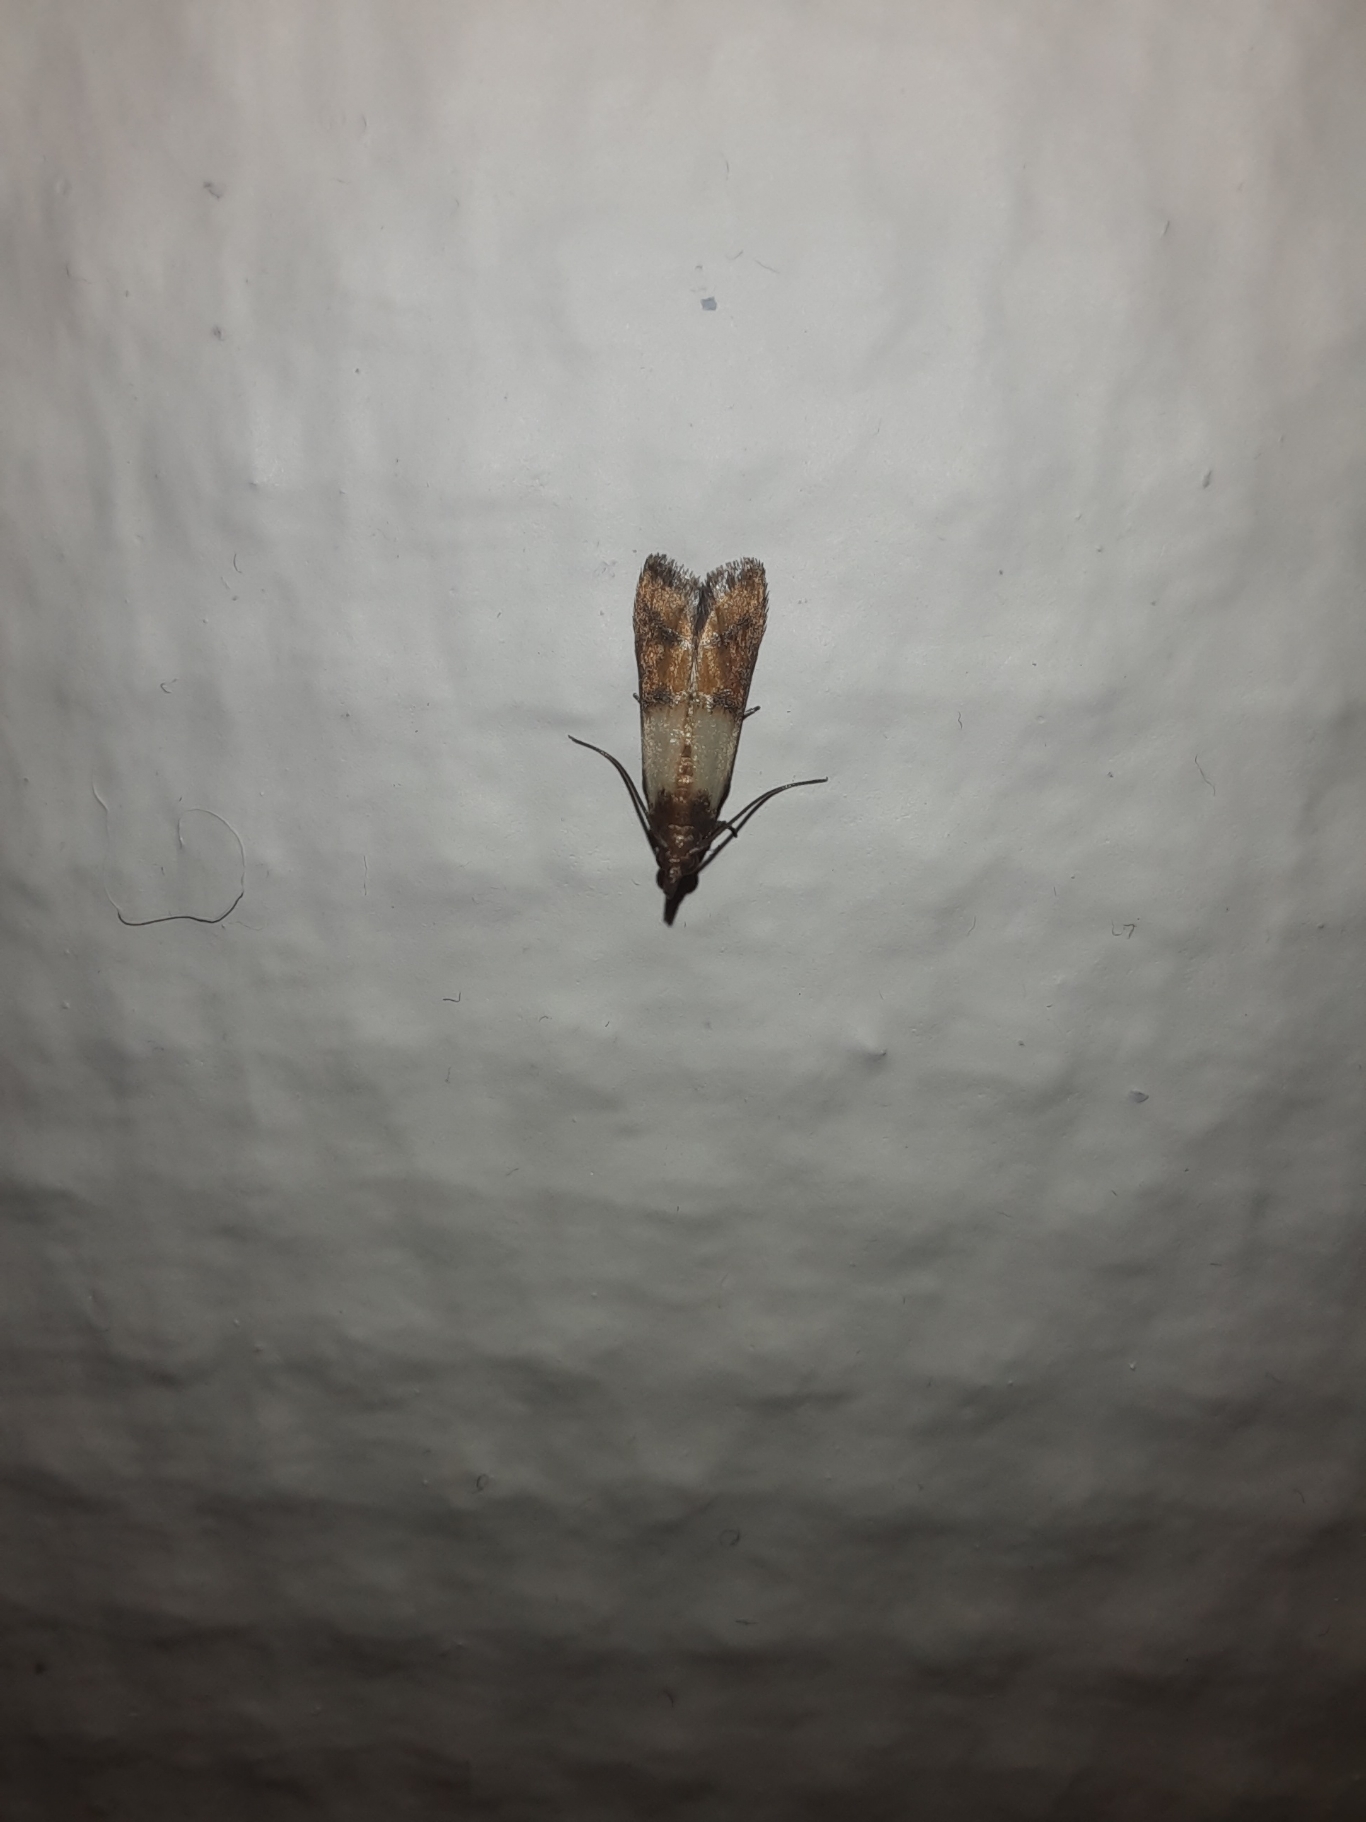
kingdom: Animalia
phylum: Arthropoda
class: Insecta
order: Lepidoptera
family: Pyralidae
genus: Plodia
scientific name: Plodia interpunctella
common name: Tofarvet frømøl
